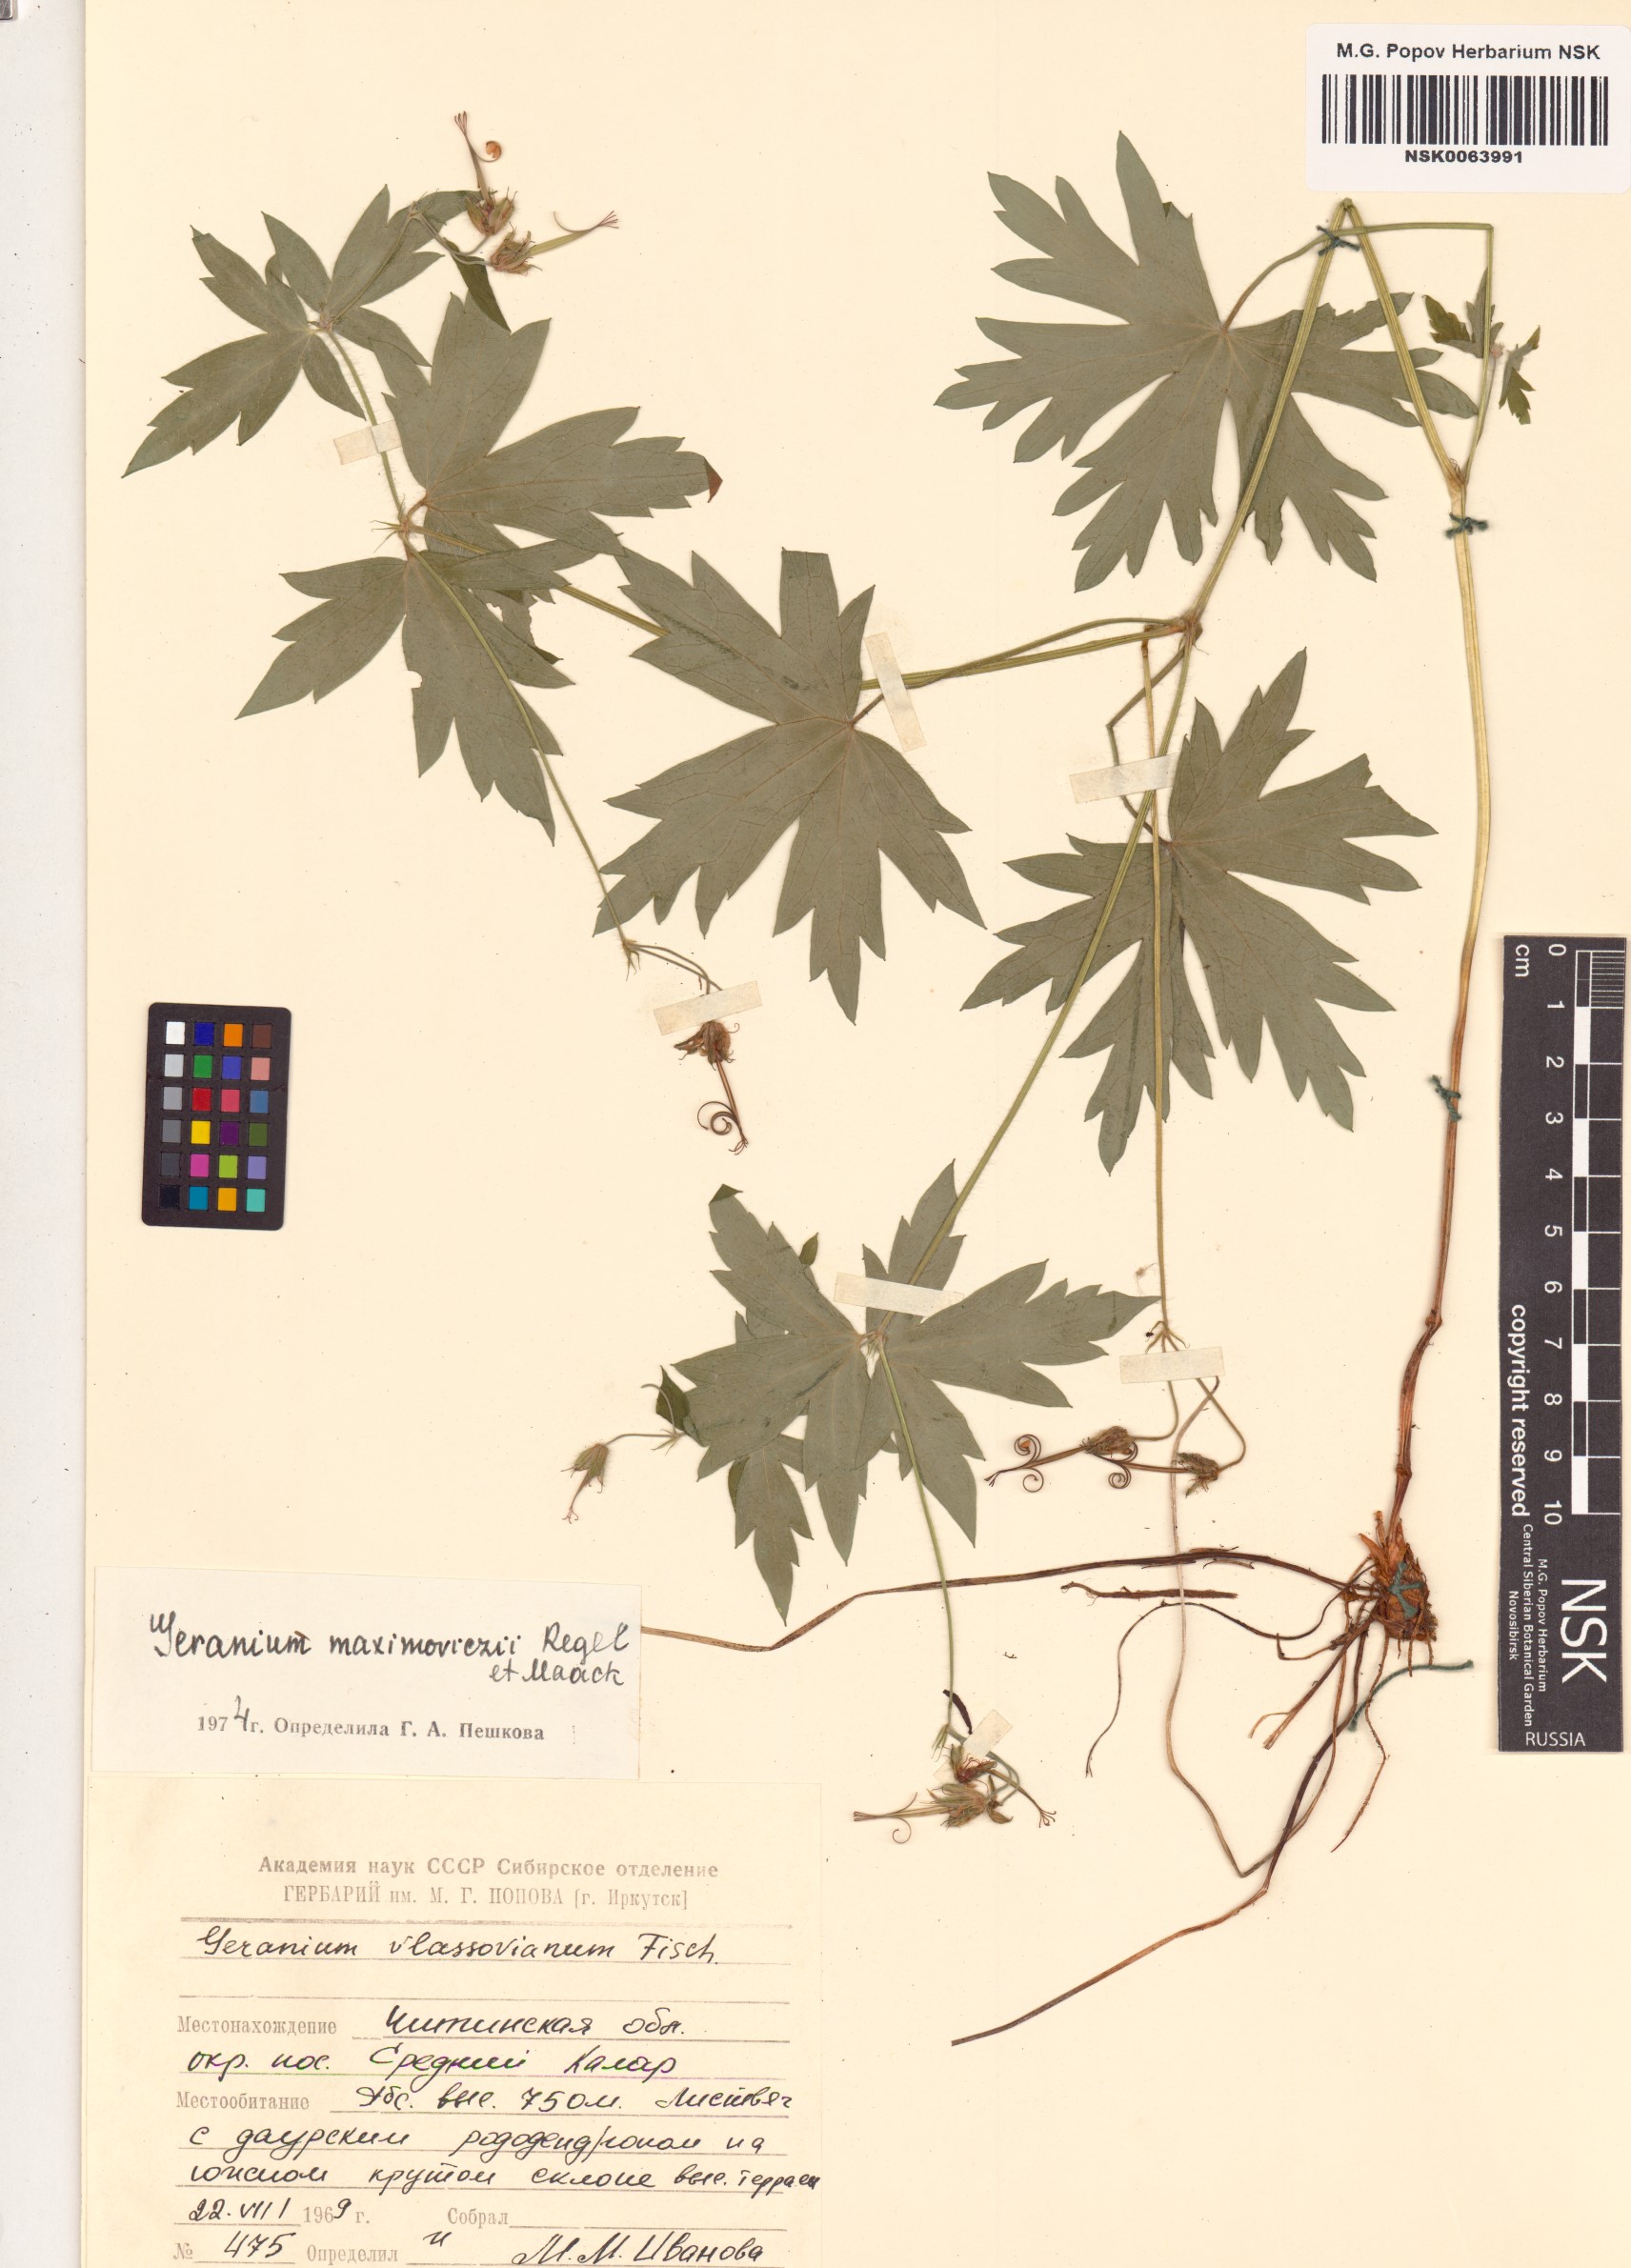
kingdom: Plantae
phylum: Tracheophyta
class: Magnoliopsida
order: Geraniales
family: Geraniaceae
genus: Geranium
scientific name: Geranium maximowiczii
